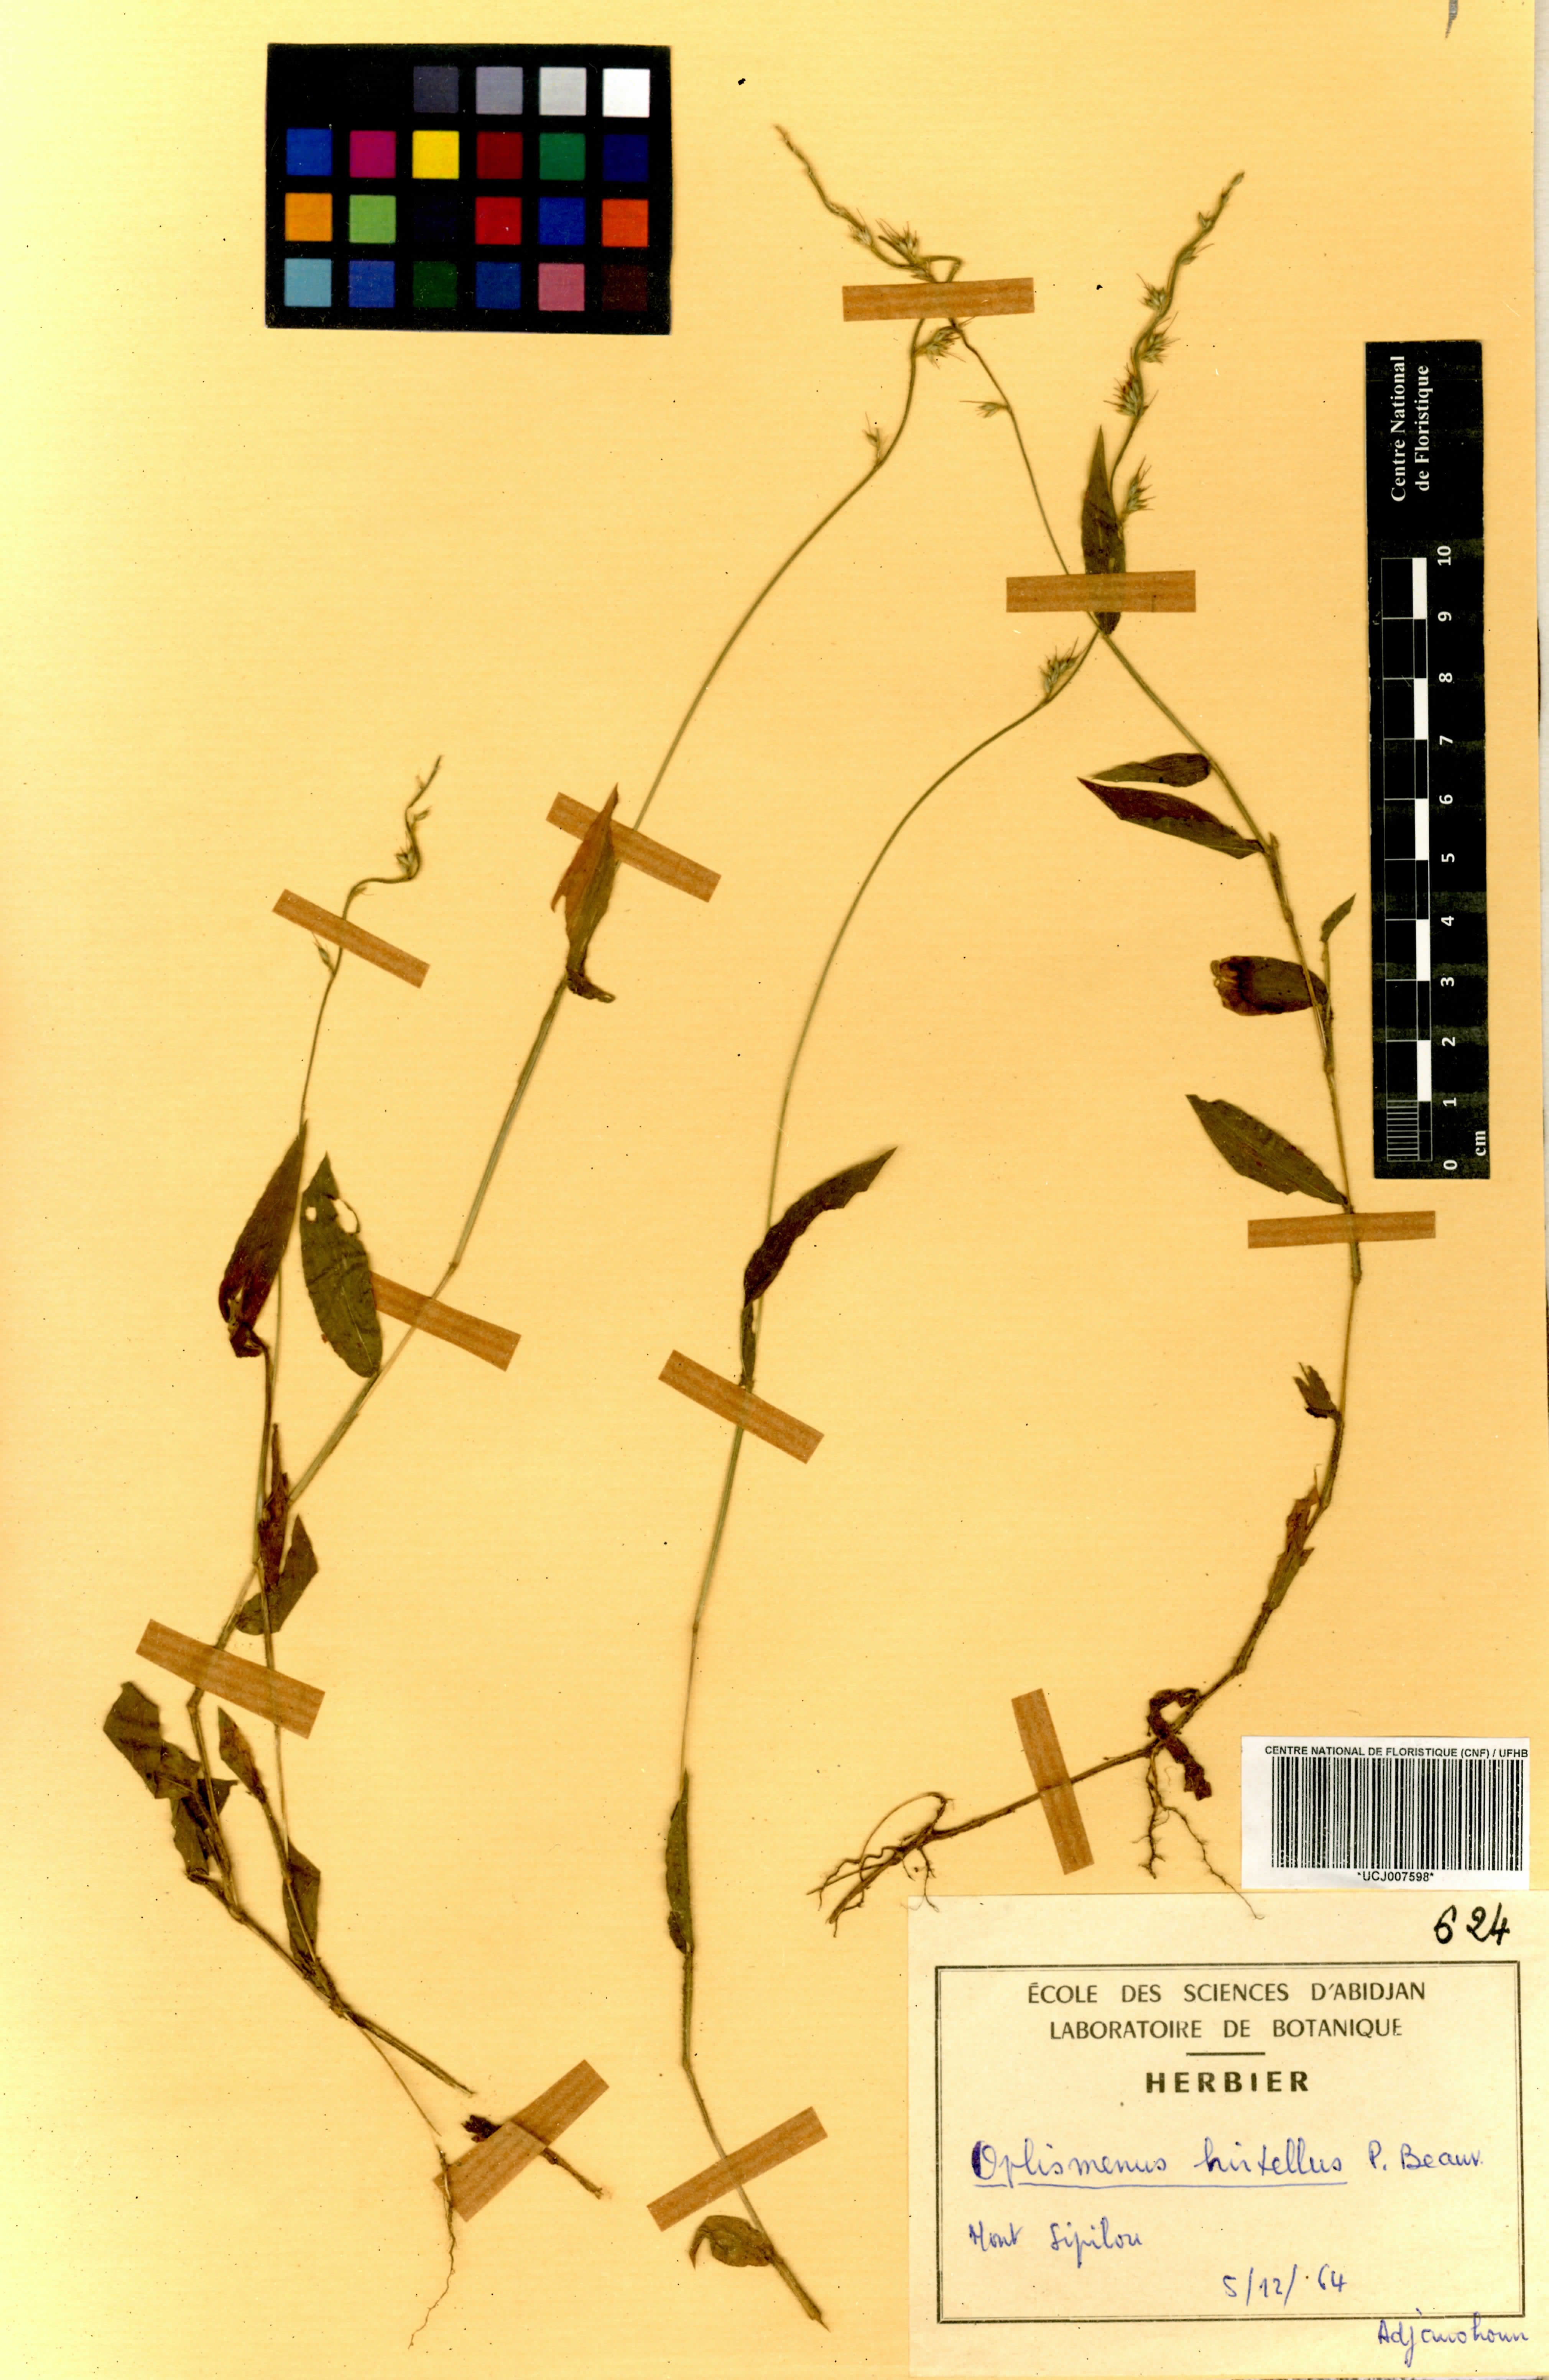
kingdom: Plantae
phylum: Tracheophyta
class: Liliopsida
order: Poales
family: Poaceae
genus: Oplismenus
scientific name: Oplismenus hirtellus
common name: Basketgrass
